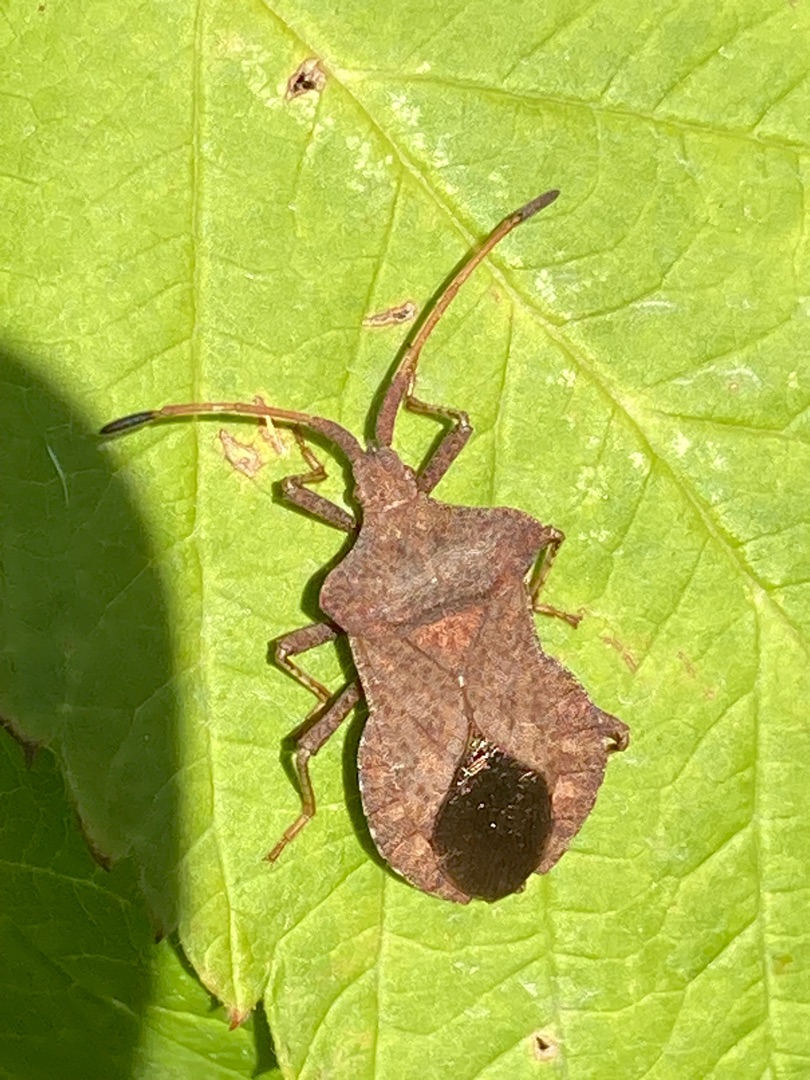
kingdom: Animalia
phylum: Arthropoda
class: Insecta
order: Hemiptera
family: Coreidae
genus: Coreus
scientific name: Coreus marginatus
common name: Skræppetæge
